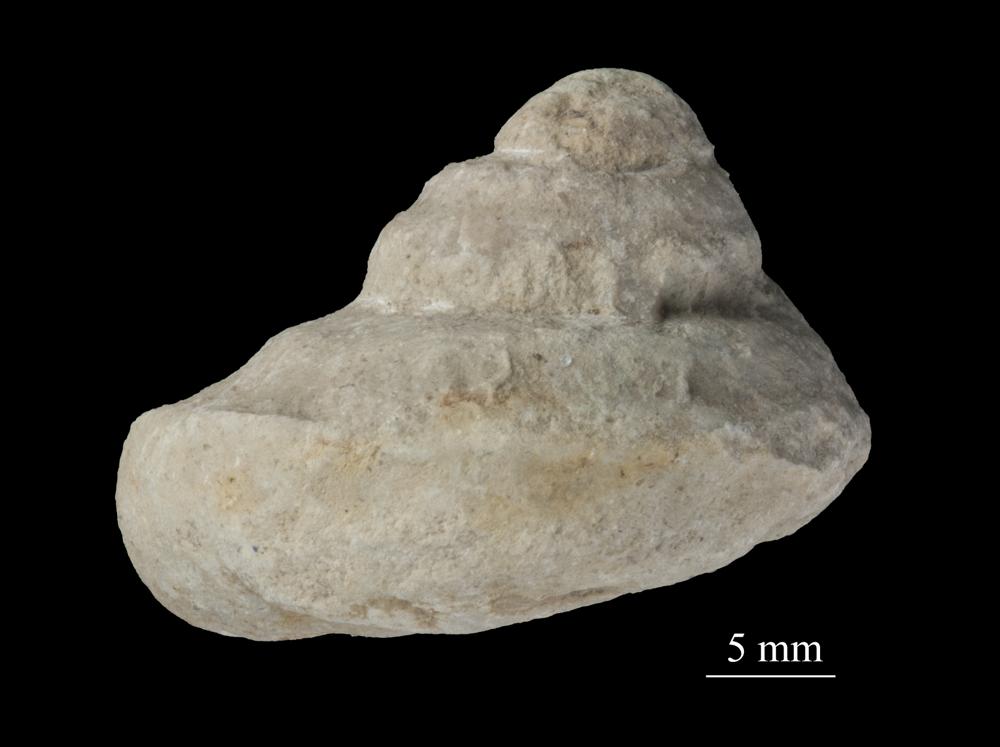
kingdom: Animalia
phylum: Mollusca
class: Gastropoda
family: Lophospiridae
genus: Ruedemannia
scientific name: Ruedemannia Worthenia borkholmiensis
